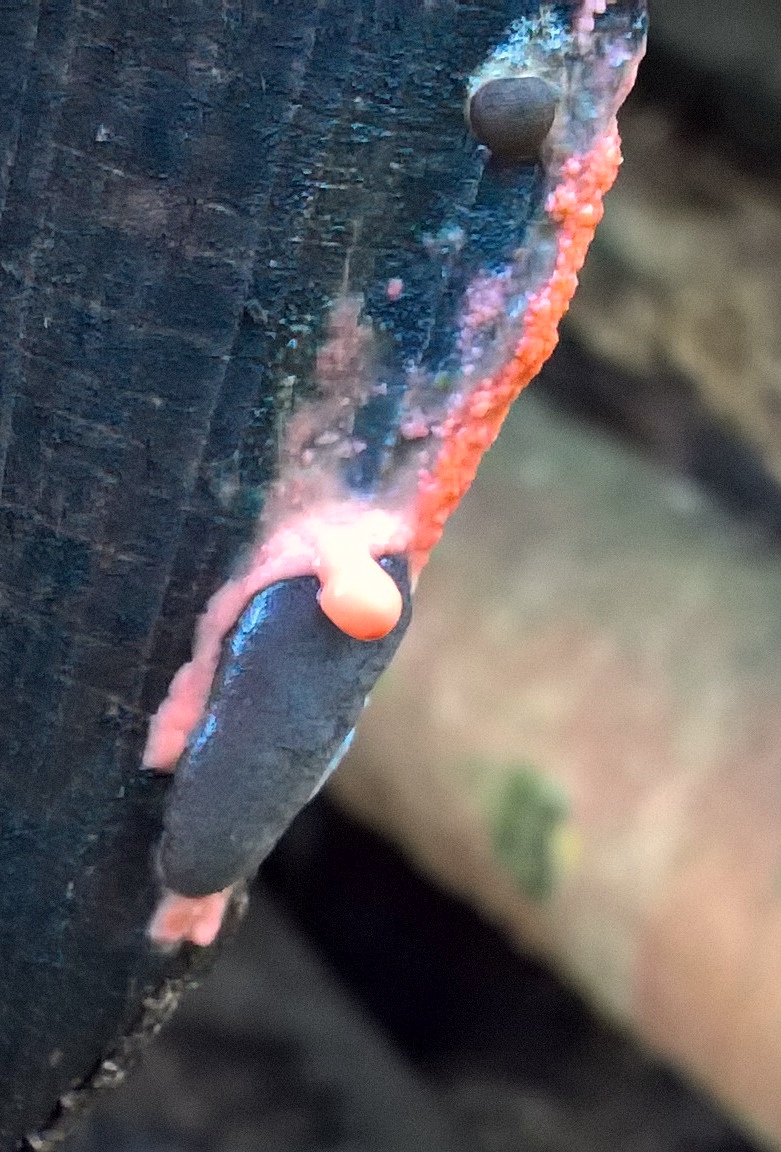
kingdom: Protozoa
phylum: Mycetozoa
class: Myxomycetes
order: Trichiales
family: Dictydiaethaliaceae
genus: Dictydiaethalium
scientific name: Dictydiaethalium plumbeum
